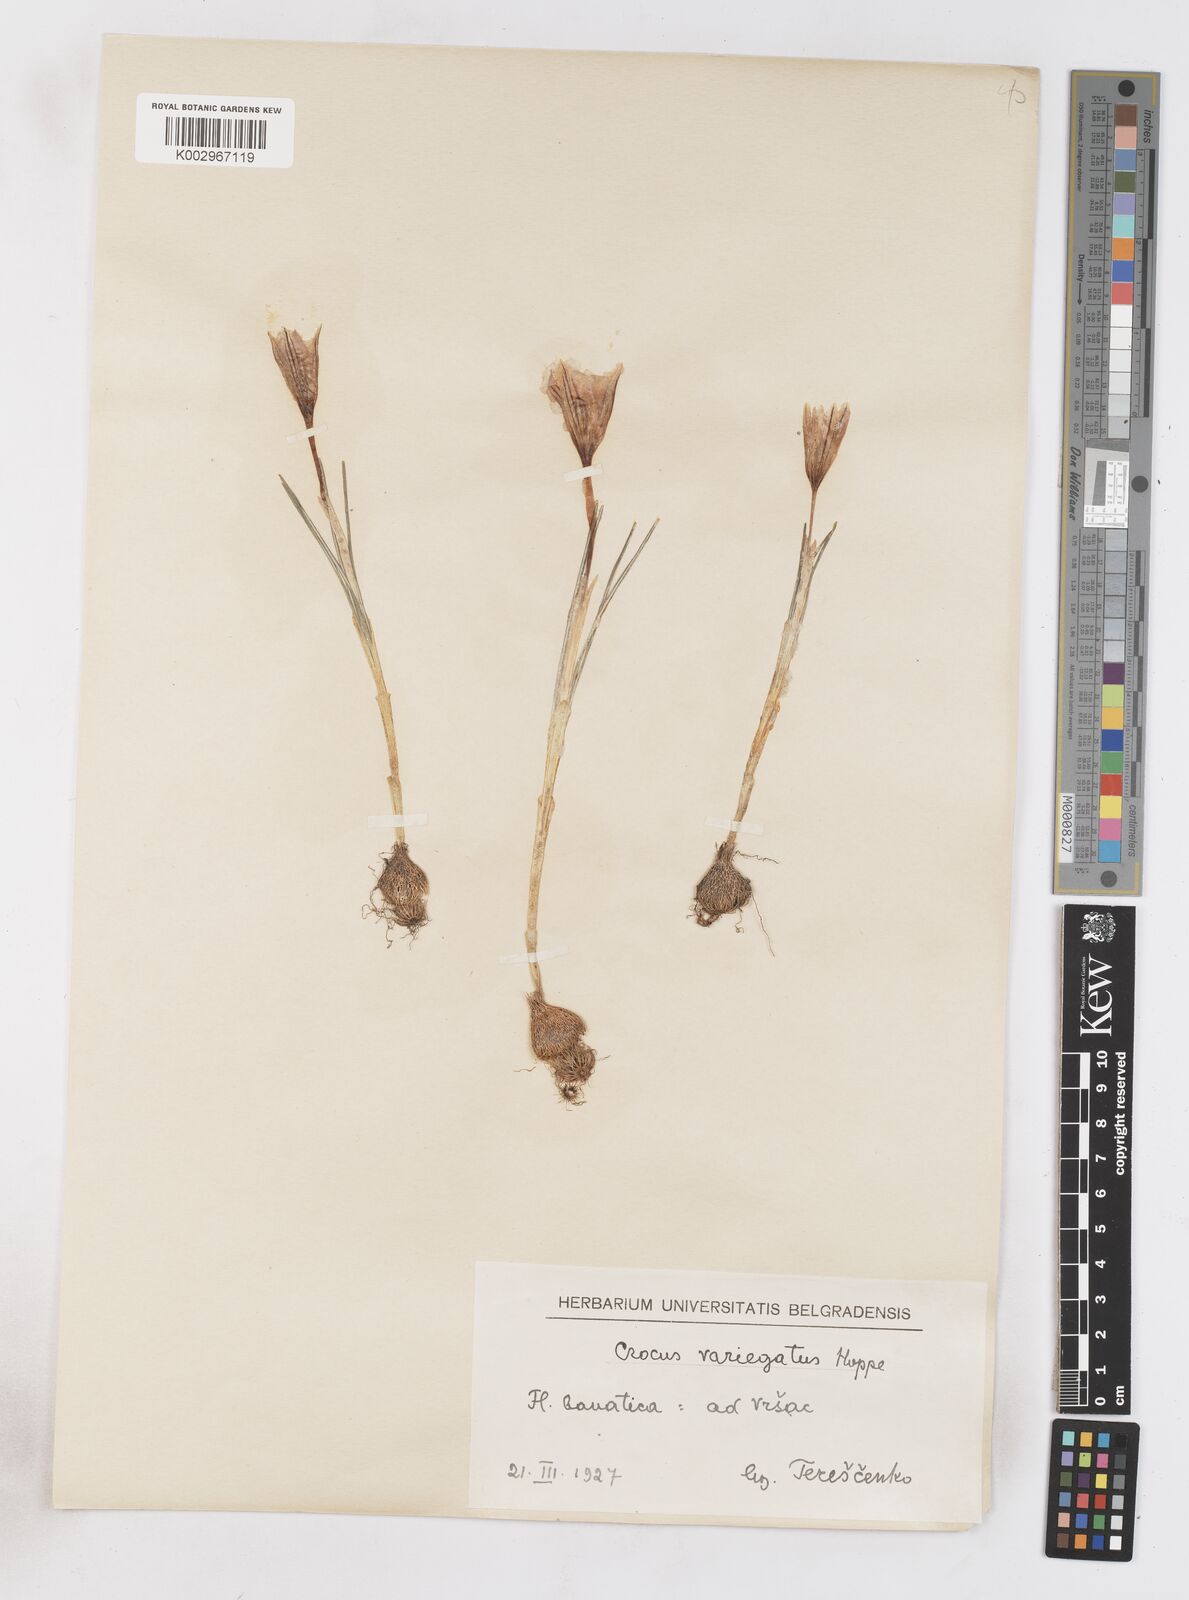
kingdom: Plantae
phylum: Tracheophyta
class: Liliopsida
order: Asparagales
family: Iridaceae
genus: Crocus
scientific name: Crocus reticulatus
